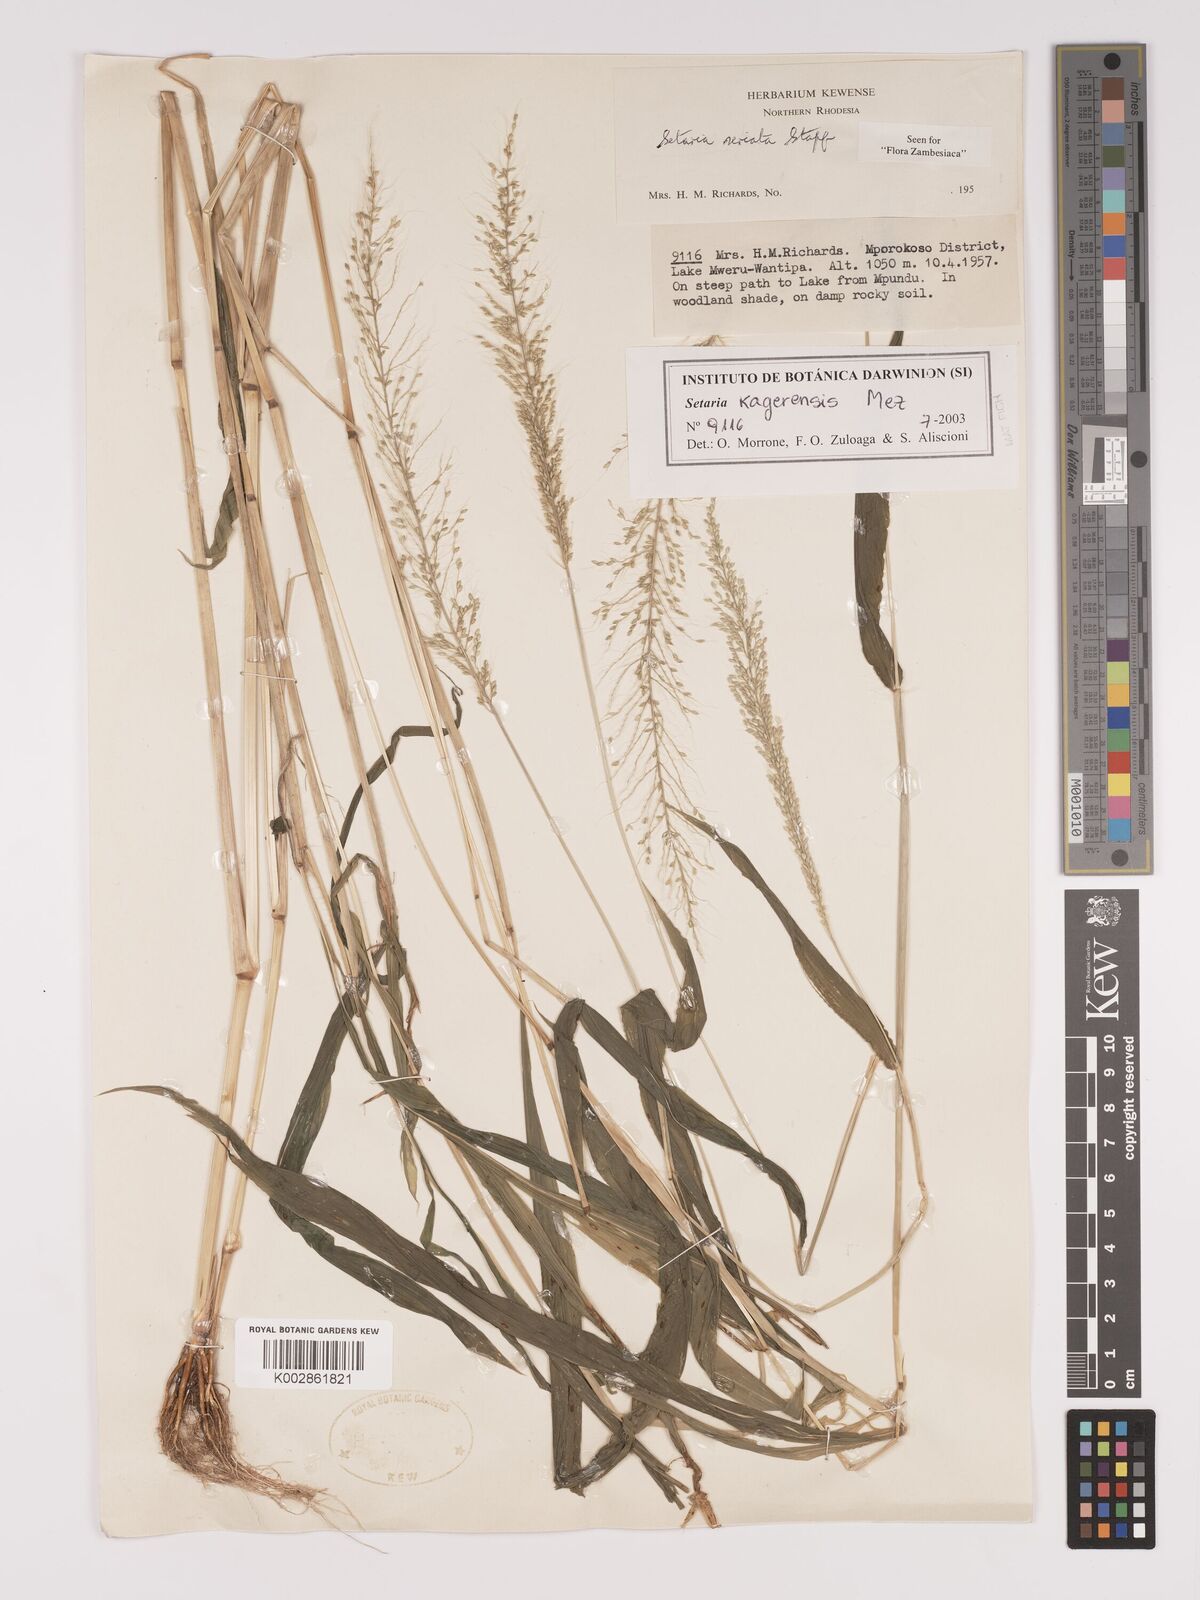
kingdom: Plantae
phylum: Tracheophyta
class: Liliopsida
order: Poales
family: Poaceae
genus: Setaria
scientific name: Setaria kagerensis
